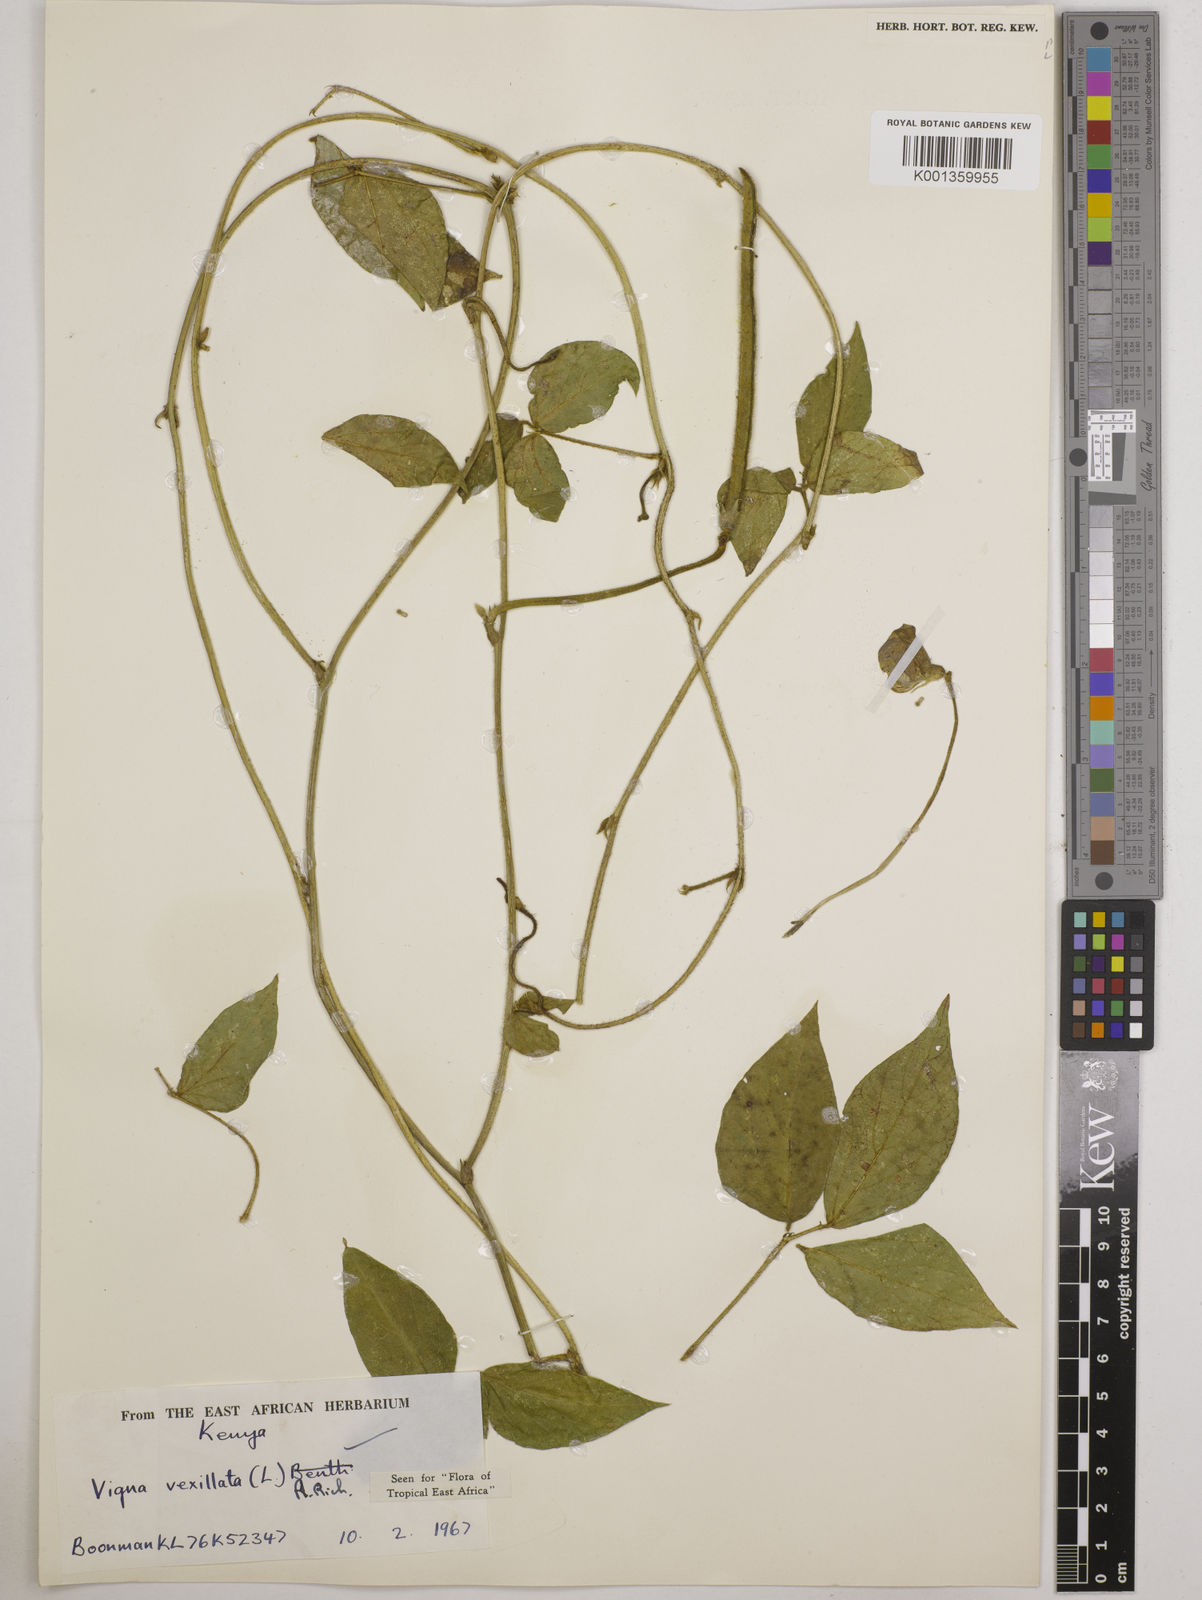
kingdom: Plantae
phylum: Tracheophyta
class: Magnoliopsida
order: Fabales
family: Fabaceae
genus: Vigna
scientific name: Vigna vexillata
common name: Zombi pea
